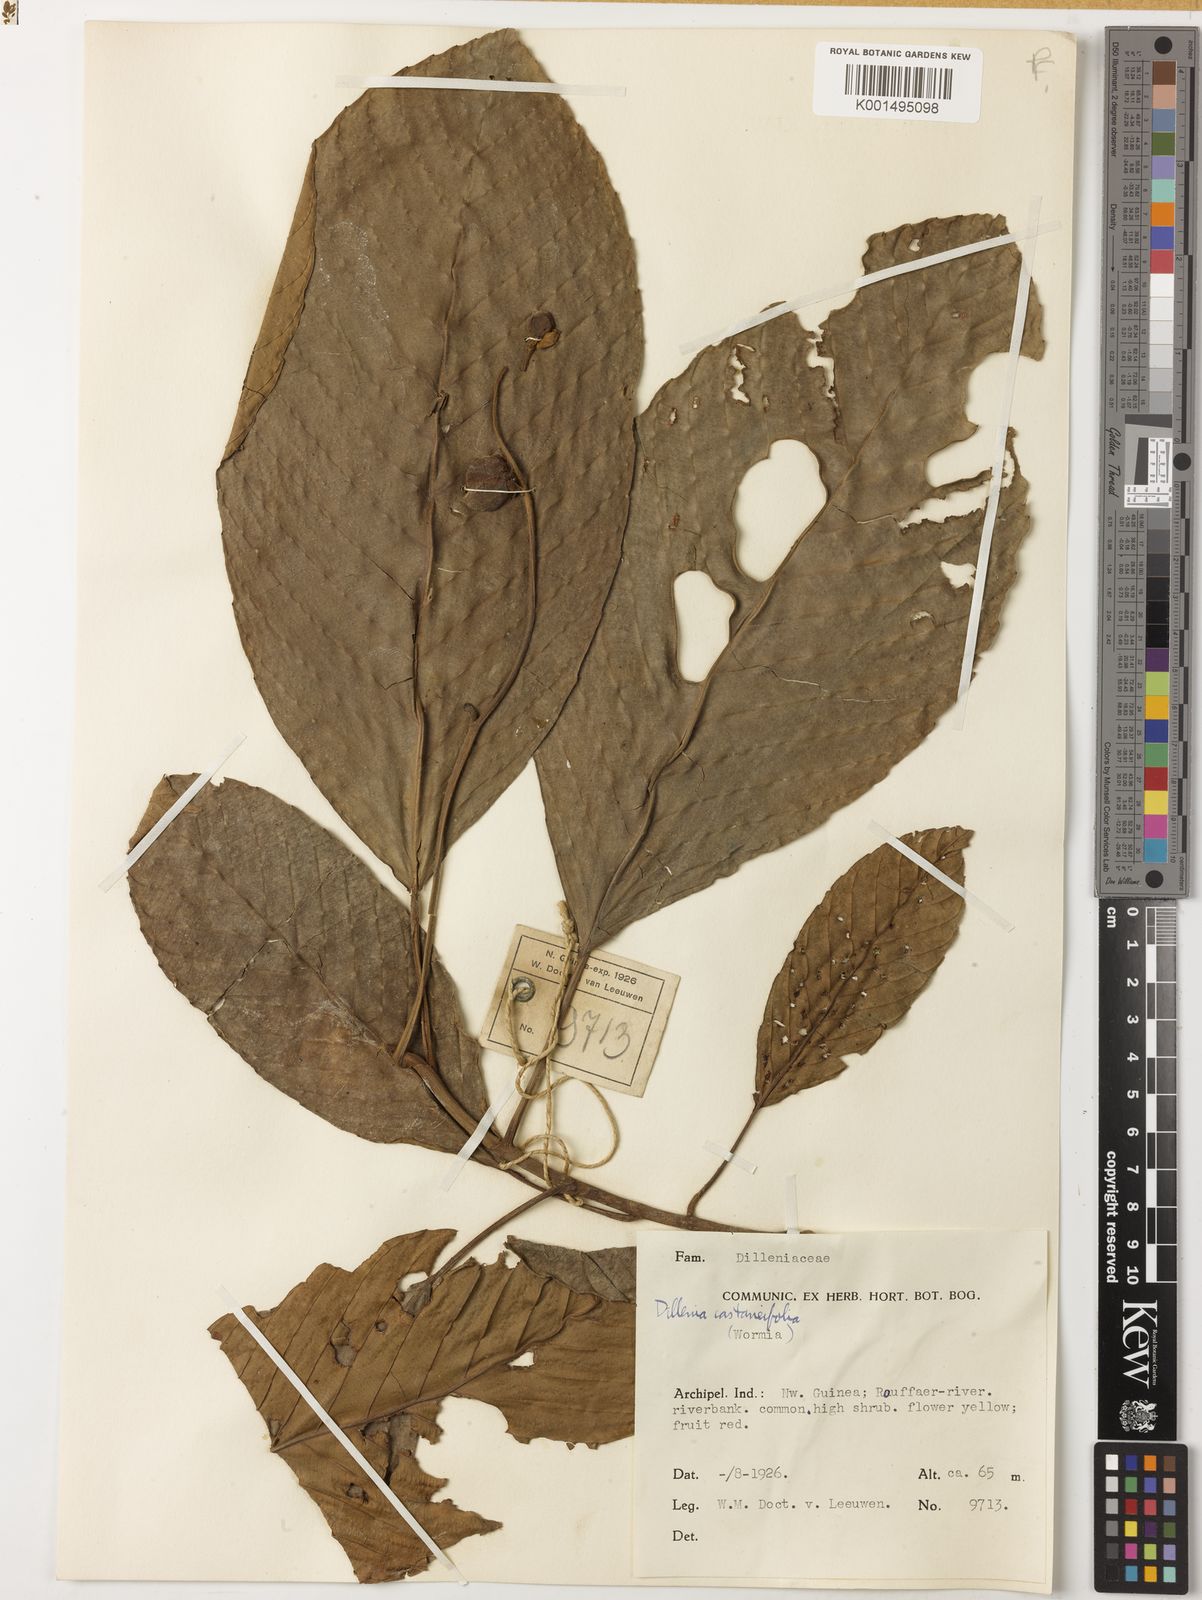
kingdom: Plantae
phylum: Tracheophyta
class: Magnoliopsida
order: Dilleniales
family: Dilleniaceae
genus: Dillenia
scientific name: Dillenia castaneifolia
